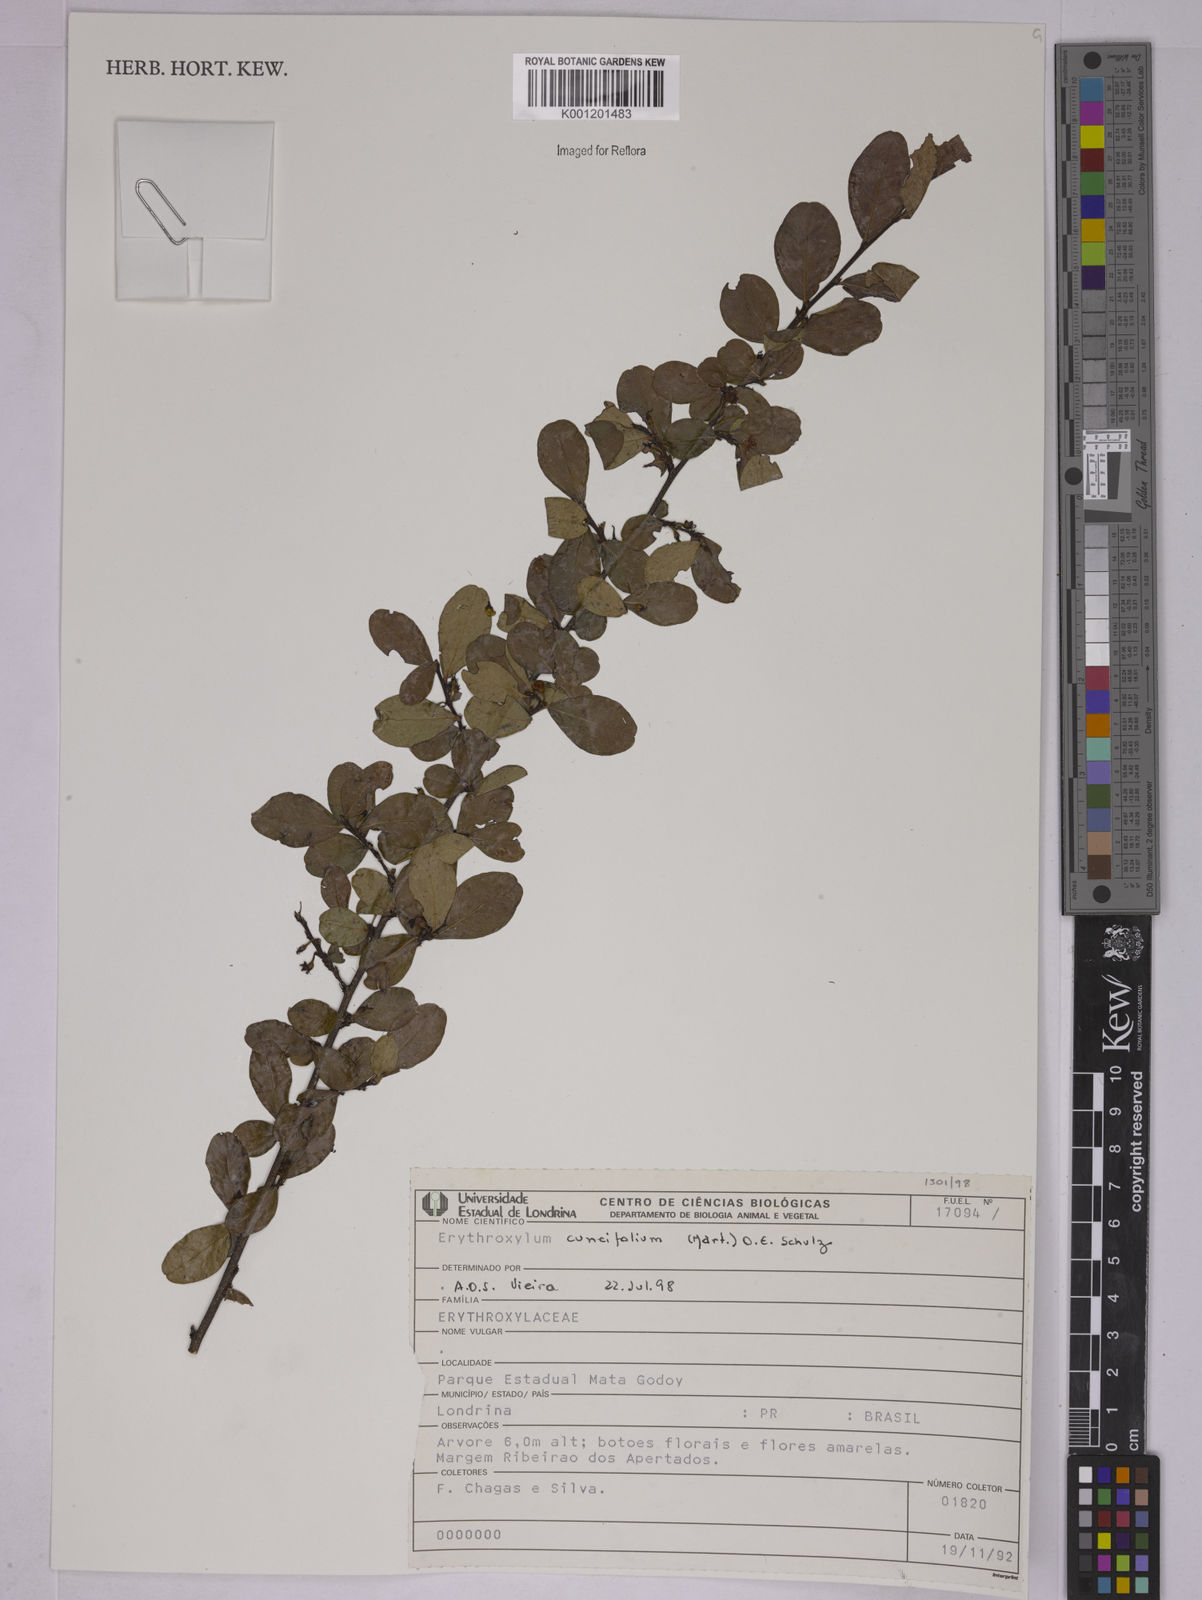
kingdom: Plantae
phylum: Tracheophyta
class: Magnoliopsida
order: Malpighiales
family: Erythroxylaceae
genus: Erythroxylum
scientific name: Erythroxylum cuneifolium
